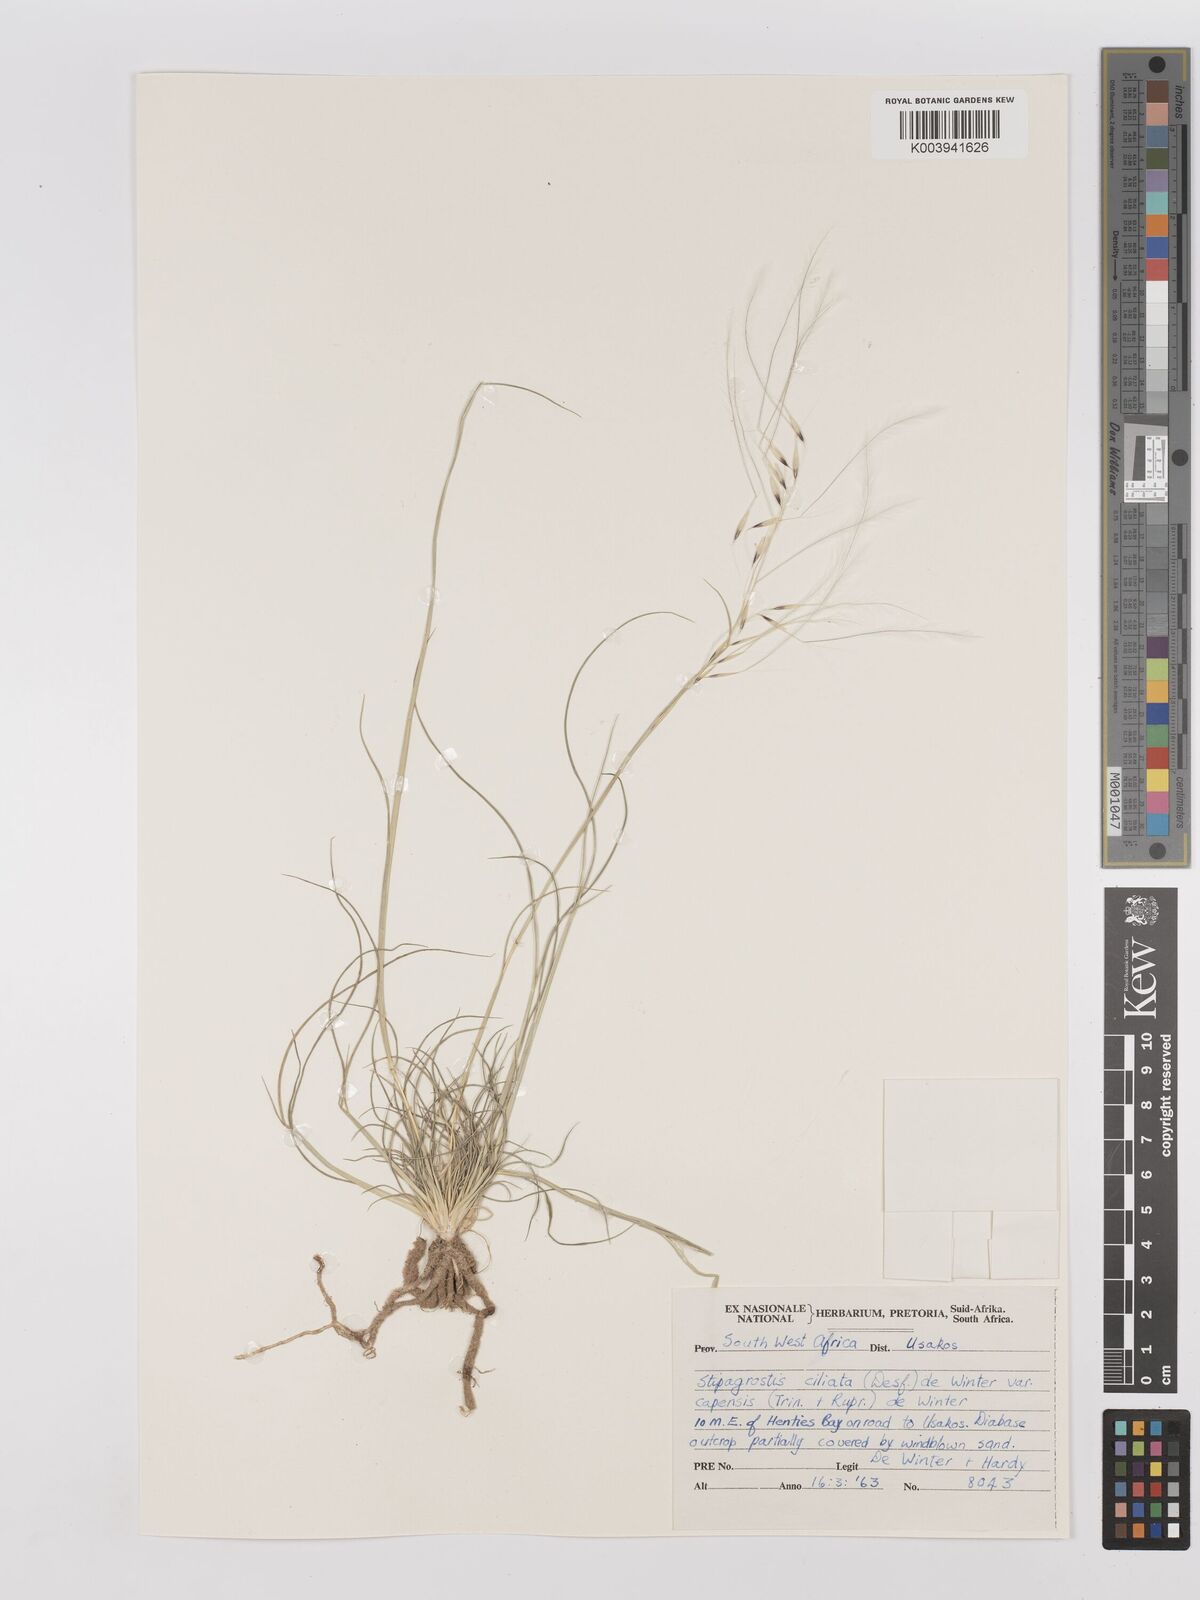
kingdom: Plantae
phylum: Tracheophyta
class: Liliopsida
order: Poales
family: Poaceae
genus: Stipagrostis
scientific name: Stipagrostis ciliata
